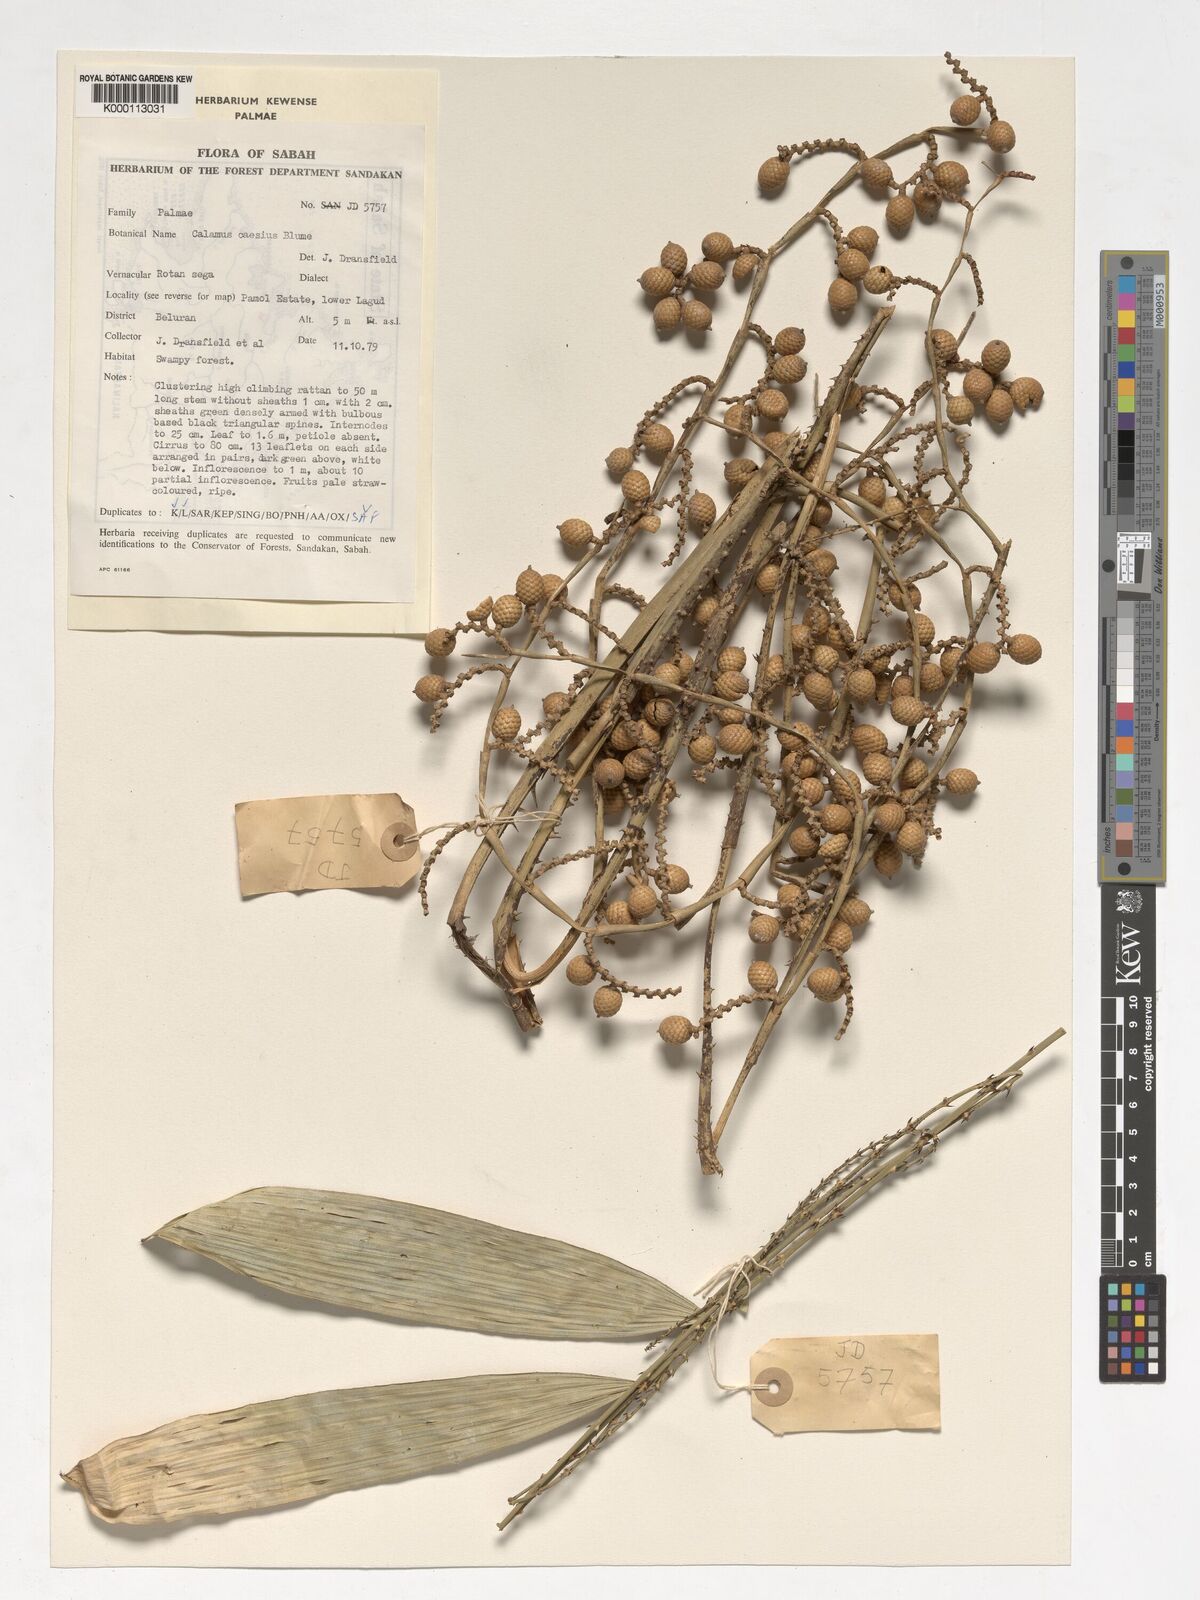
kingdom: Plantae
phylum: Tracheophyta
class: Liliopsida
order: Arecales
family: Arecaceae
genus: Calamus
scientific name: Calamus caesius
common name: Rattan palm
